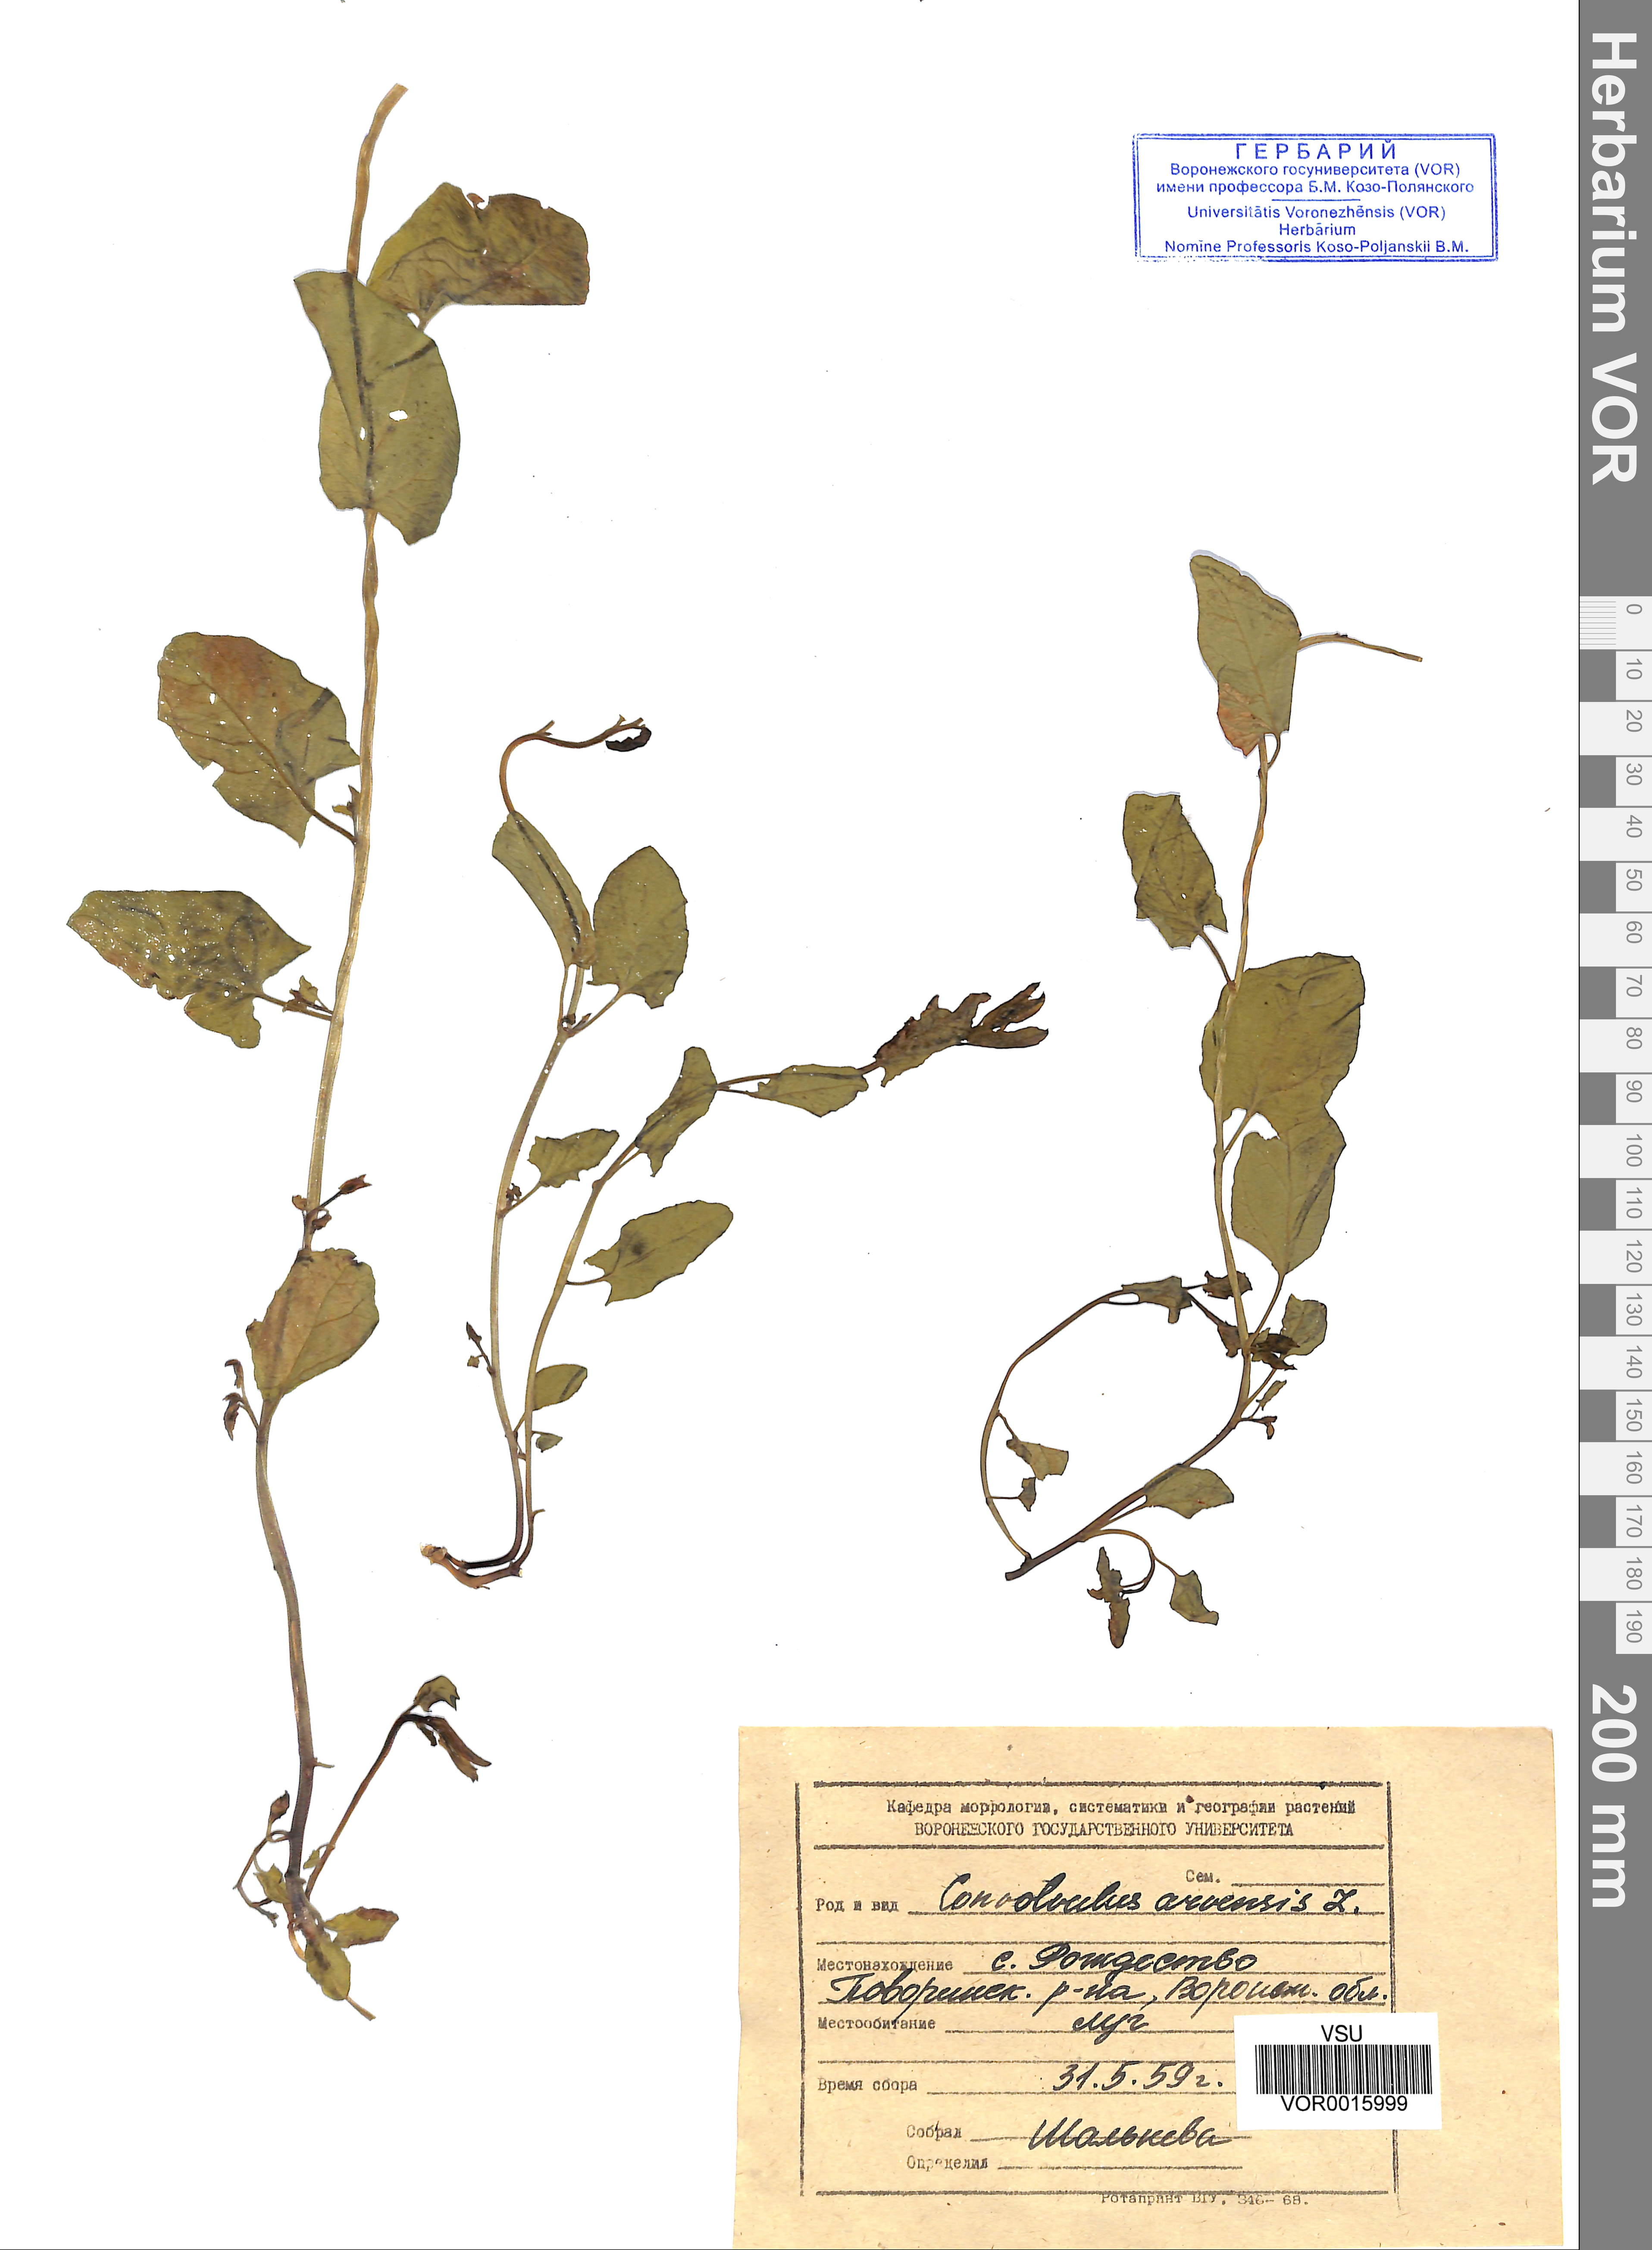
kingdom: Plantae
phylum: Tracheophyta
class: Magnoliopsida
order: Solanales
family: Convolvulaceae
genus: Convolvulus
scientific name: Convolvulus arvensis
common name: Field bindweed
